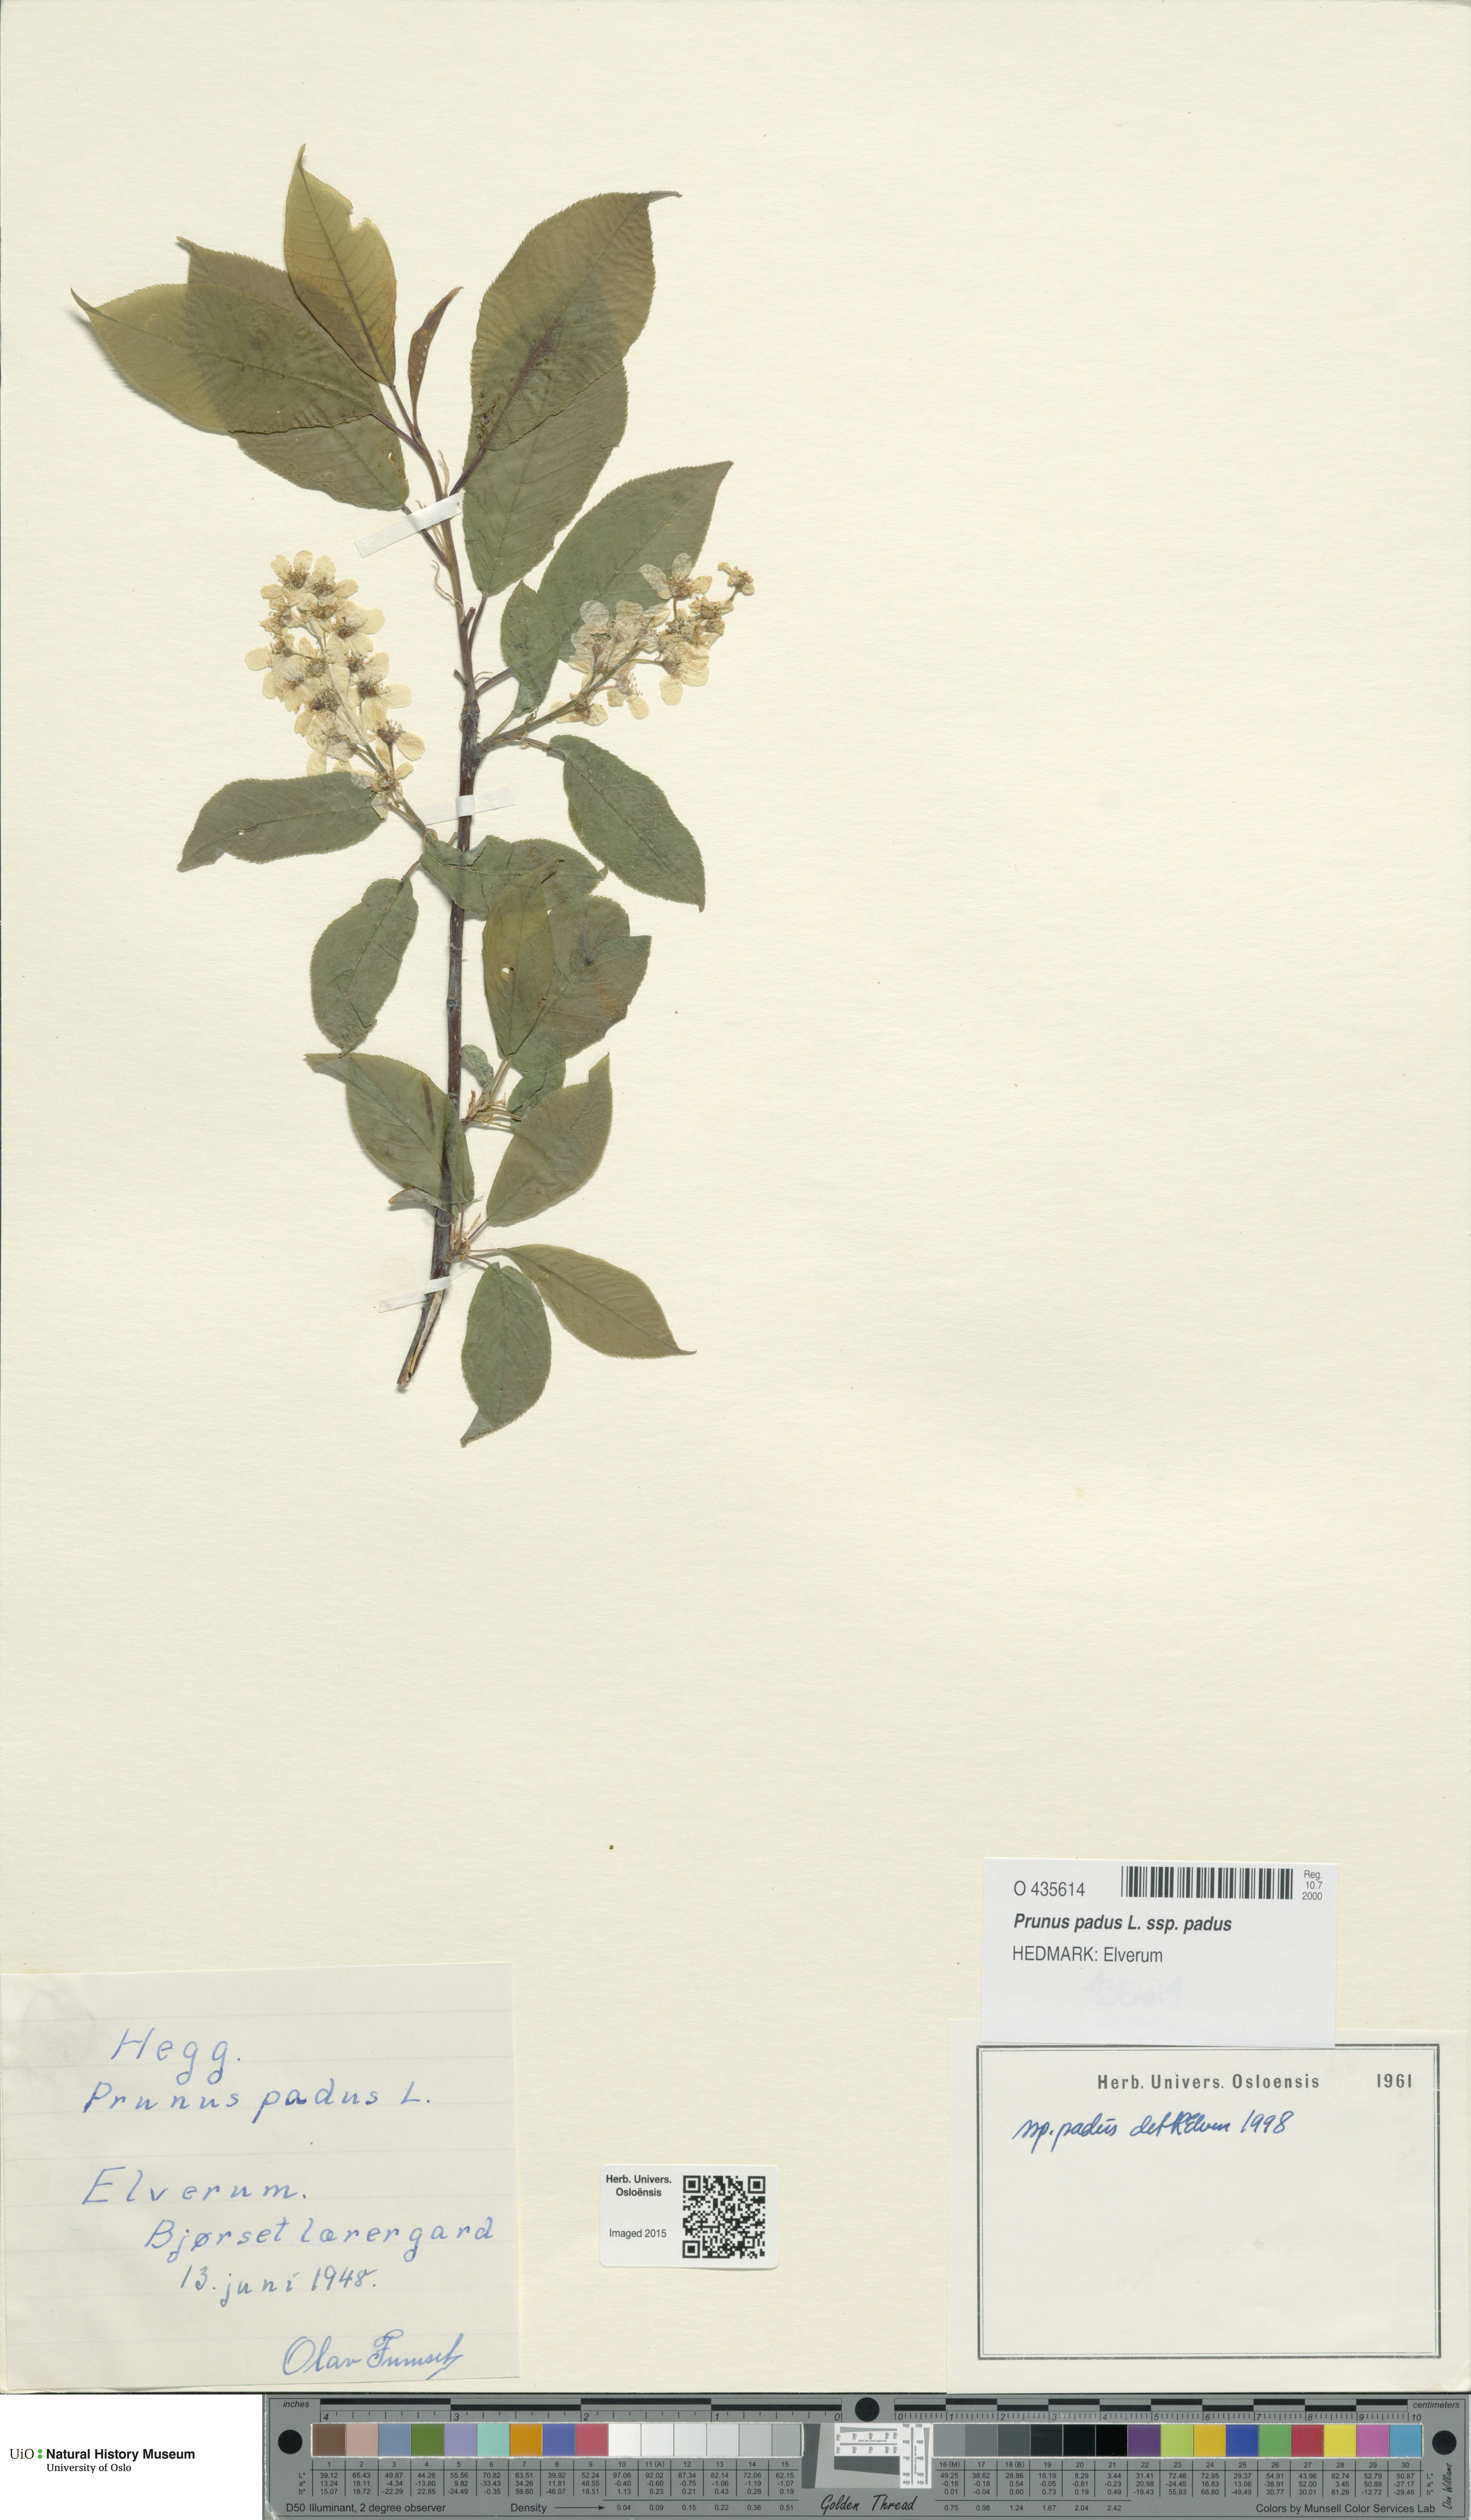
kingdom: Plantae
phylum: Tracheophyta
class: Magnoliopsida
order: Rosales
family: Rosaceae
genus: Prunus
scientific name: Prunus padus
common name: Bird cherry
